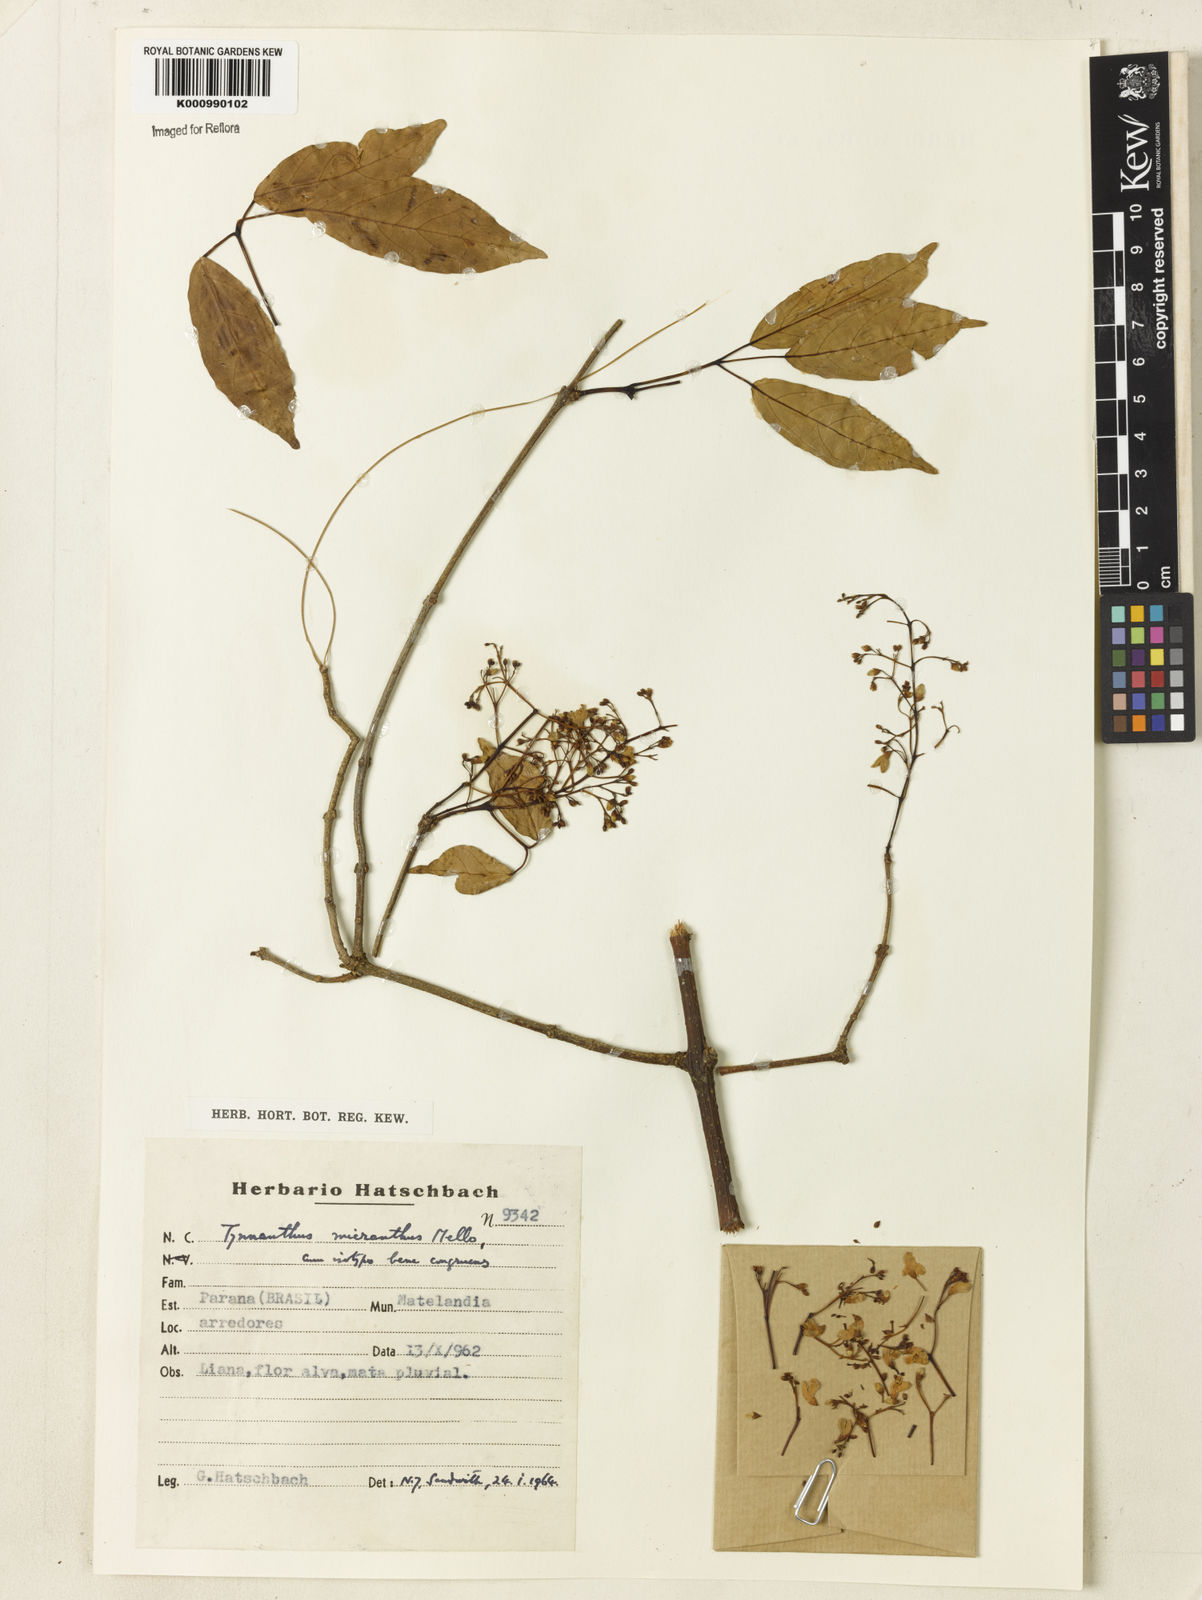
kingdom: Plantae
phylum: Tracheophyta
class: Magnoliopsida
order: Lamiales
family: Bignoniaceae
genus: Tynanthus
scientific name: Tynanthus
